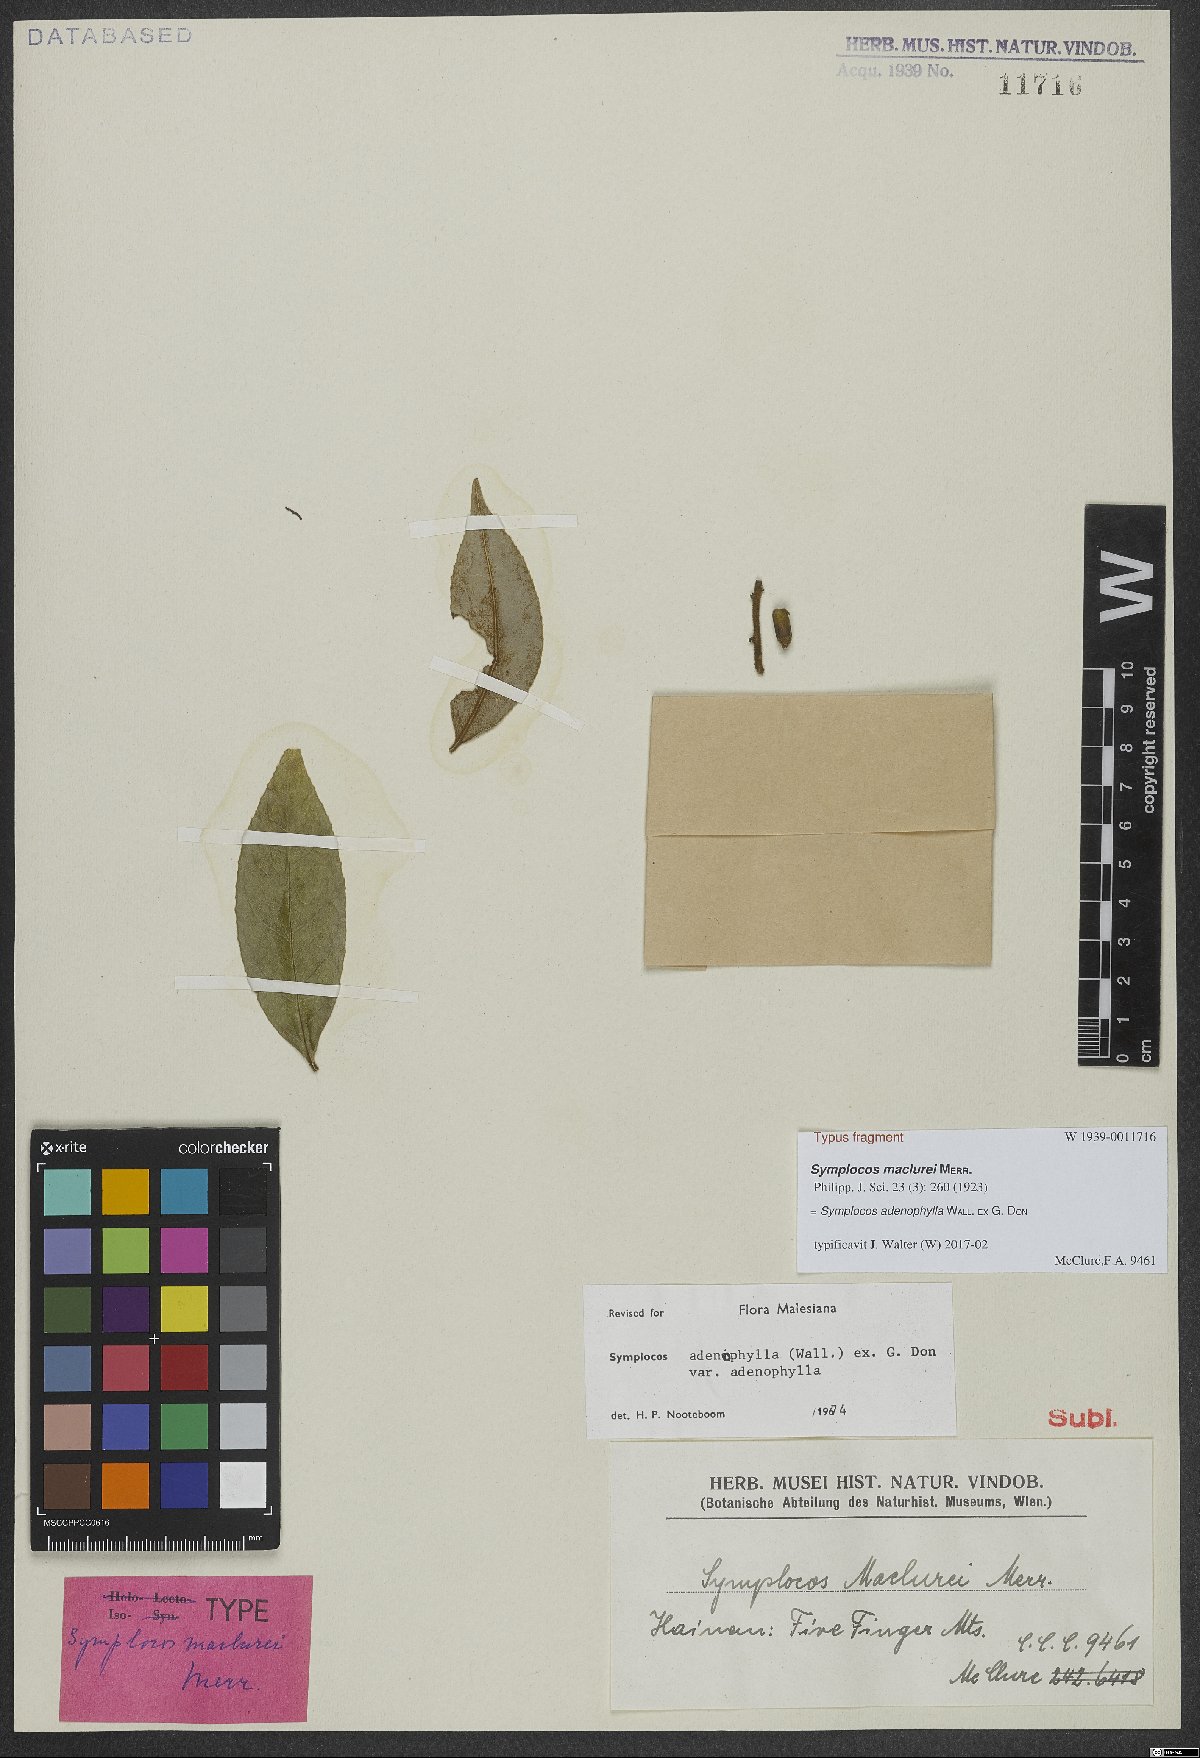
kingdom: Plantae
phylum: Tracheophyta
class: Magnoliopsida
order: Ericales
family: Symplocaceae
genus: Symplocos
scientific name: Symplocos adenophylla
